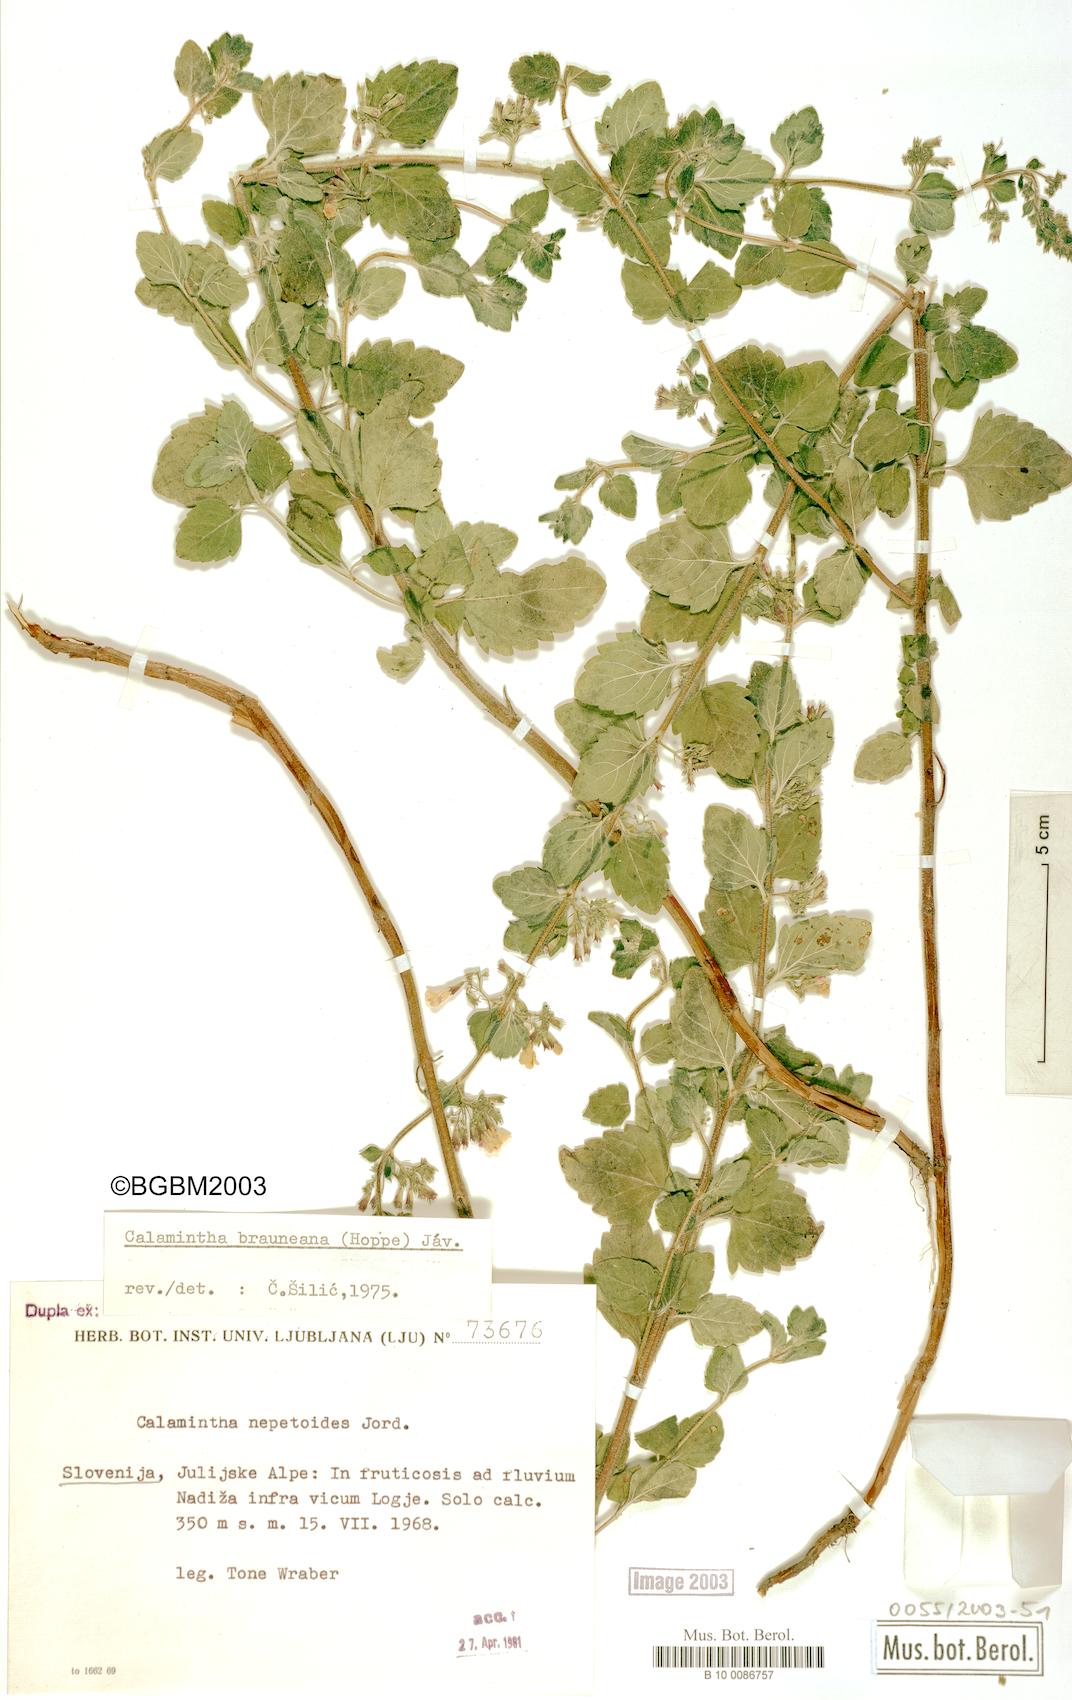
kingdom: Plantae
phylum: Tracheophyta
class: Magnoliopsida
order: Lamiales
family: Lamiaceae
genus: Clinopodium
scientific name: Clinopodium nepeta
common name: Lesser calamint
